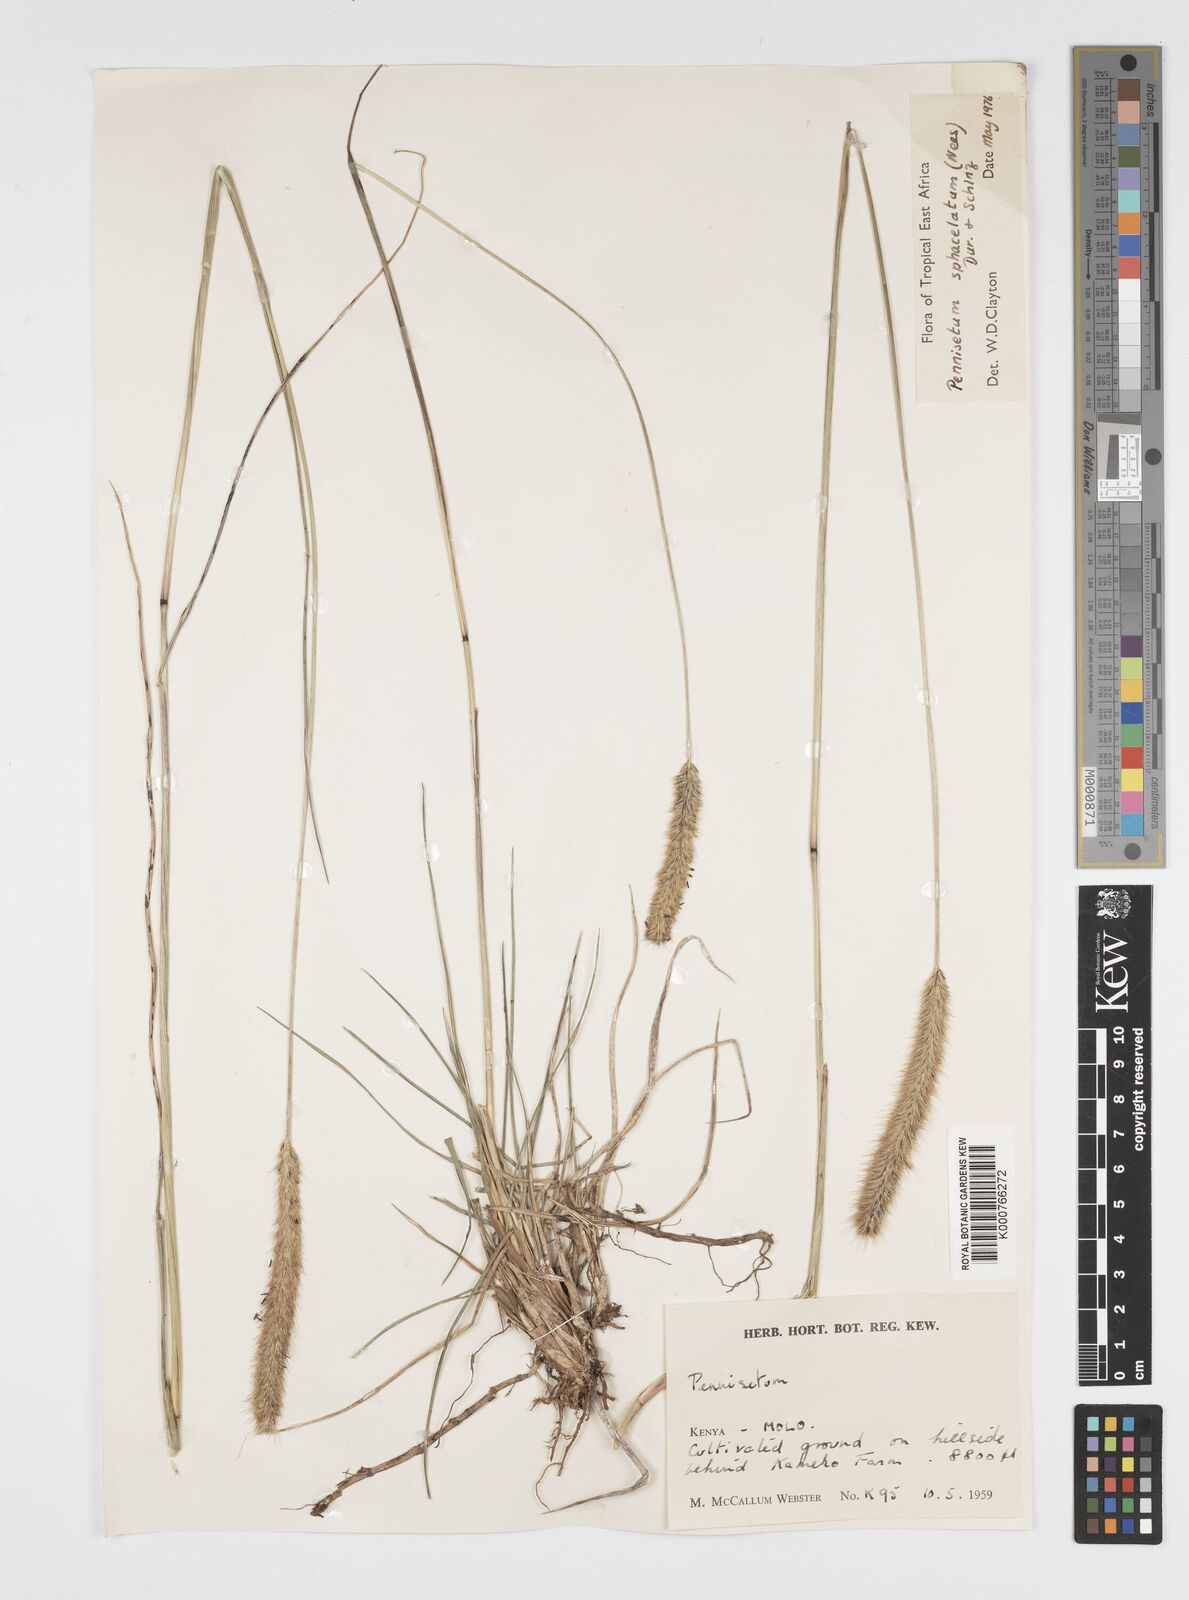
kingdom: Plantae
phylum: Tracheophyta
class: Liliopsida
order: Poales
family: Poaceae
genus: Cenchrus
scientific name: Cenchrus sphacelatus
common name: Bulgras
